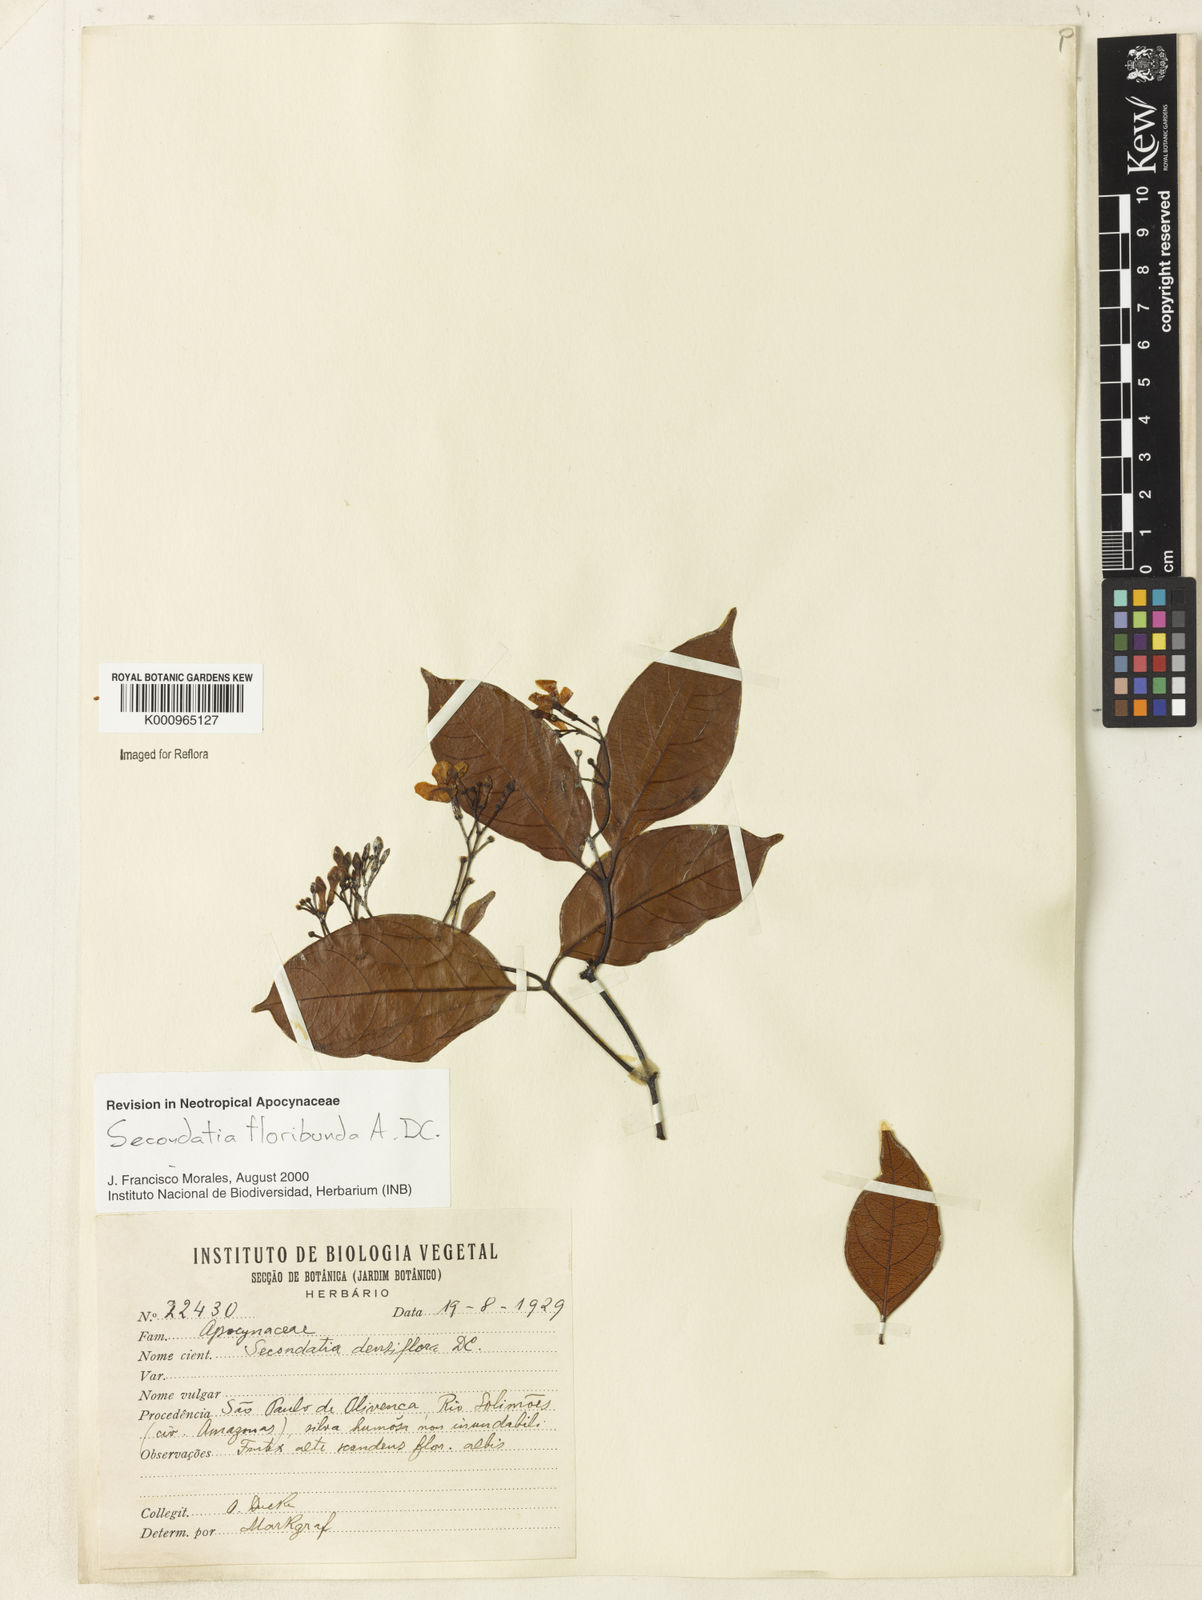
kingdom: Plantae
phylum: Tracheophyta
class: Magnoliopsida
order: Gentianales
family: Apocynaceae
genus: Secondatia
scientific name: Secondatia floribunda
